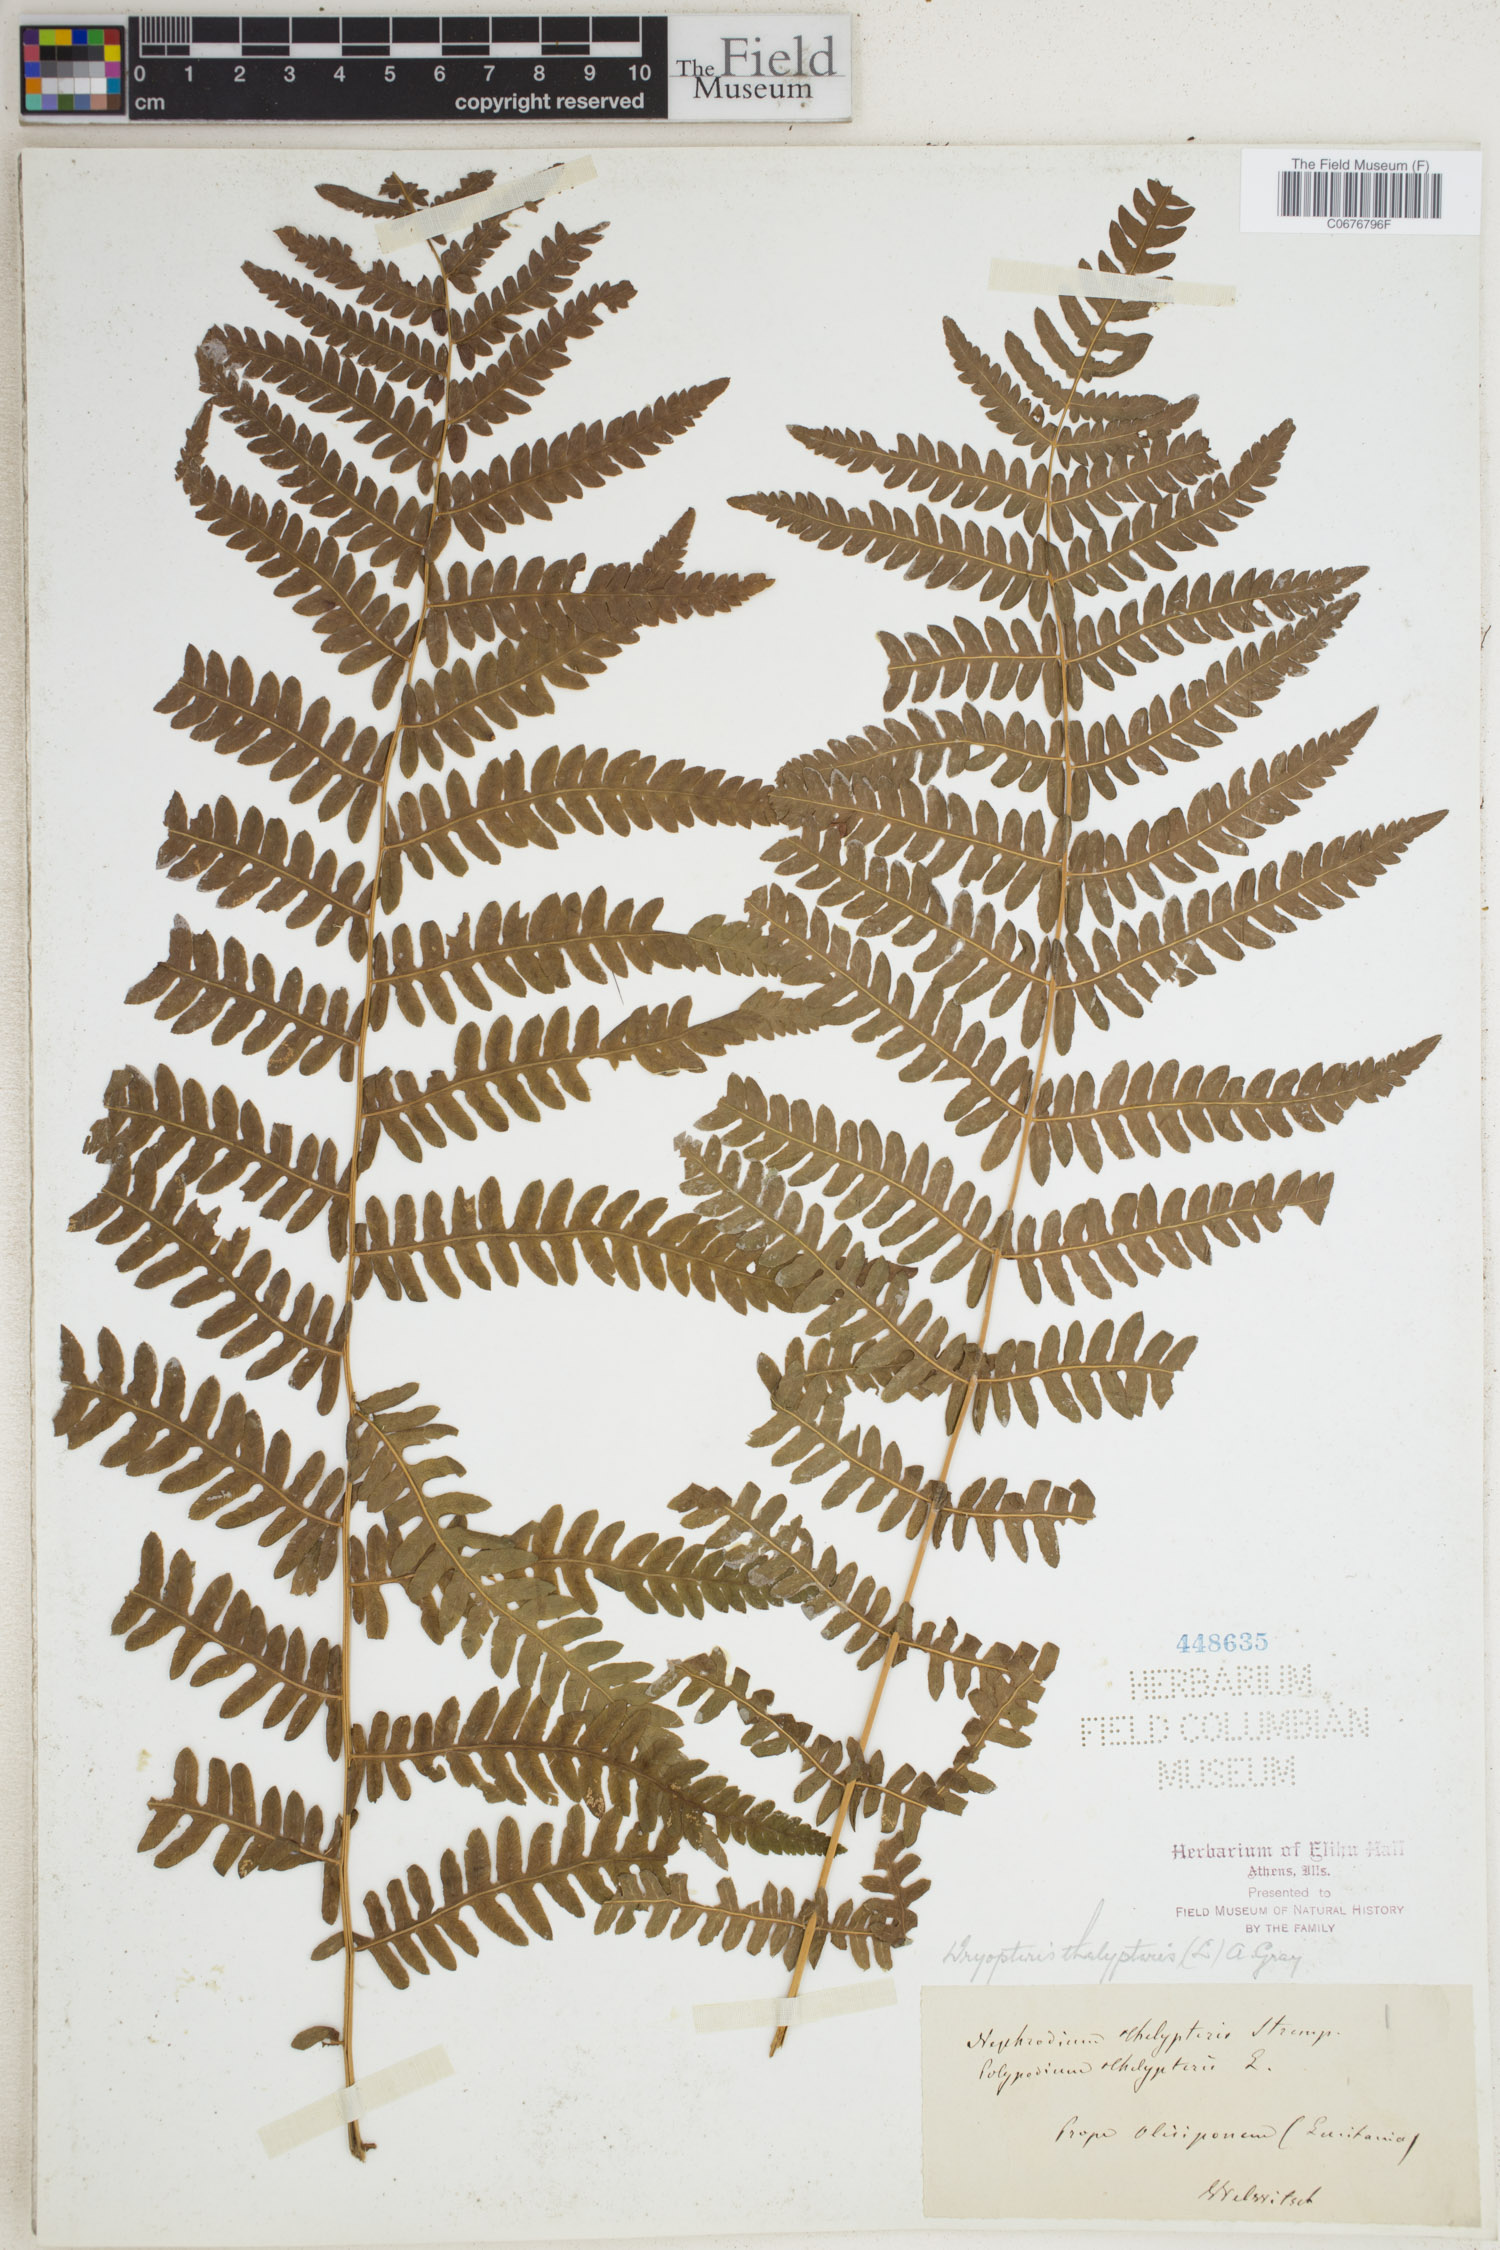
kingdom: Plantae
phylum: Tracheophyta
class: Polypodiopsida
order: Polypodiales
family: Thelypteridaceae
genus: Thelypteris
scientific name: Thelypteris palustris
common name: Marsh fern
